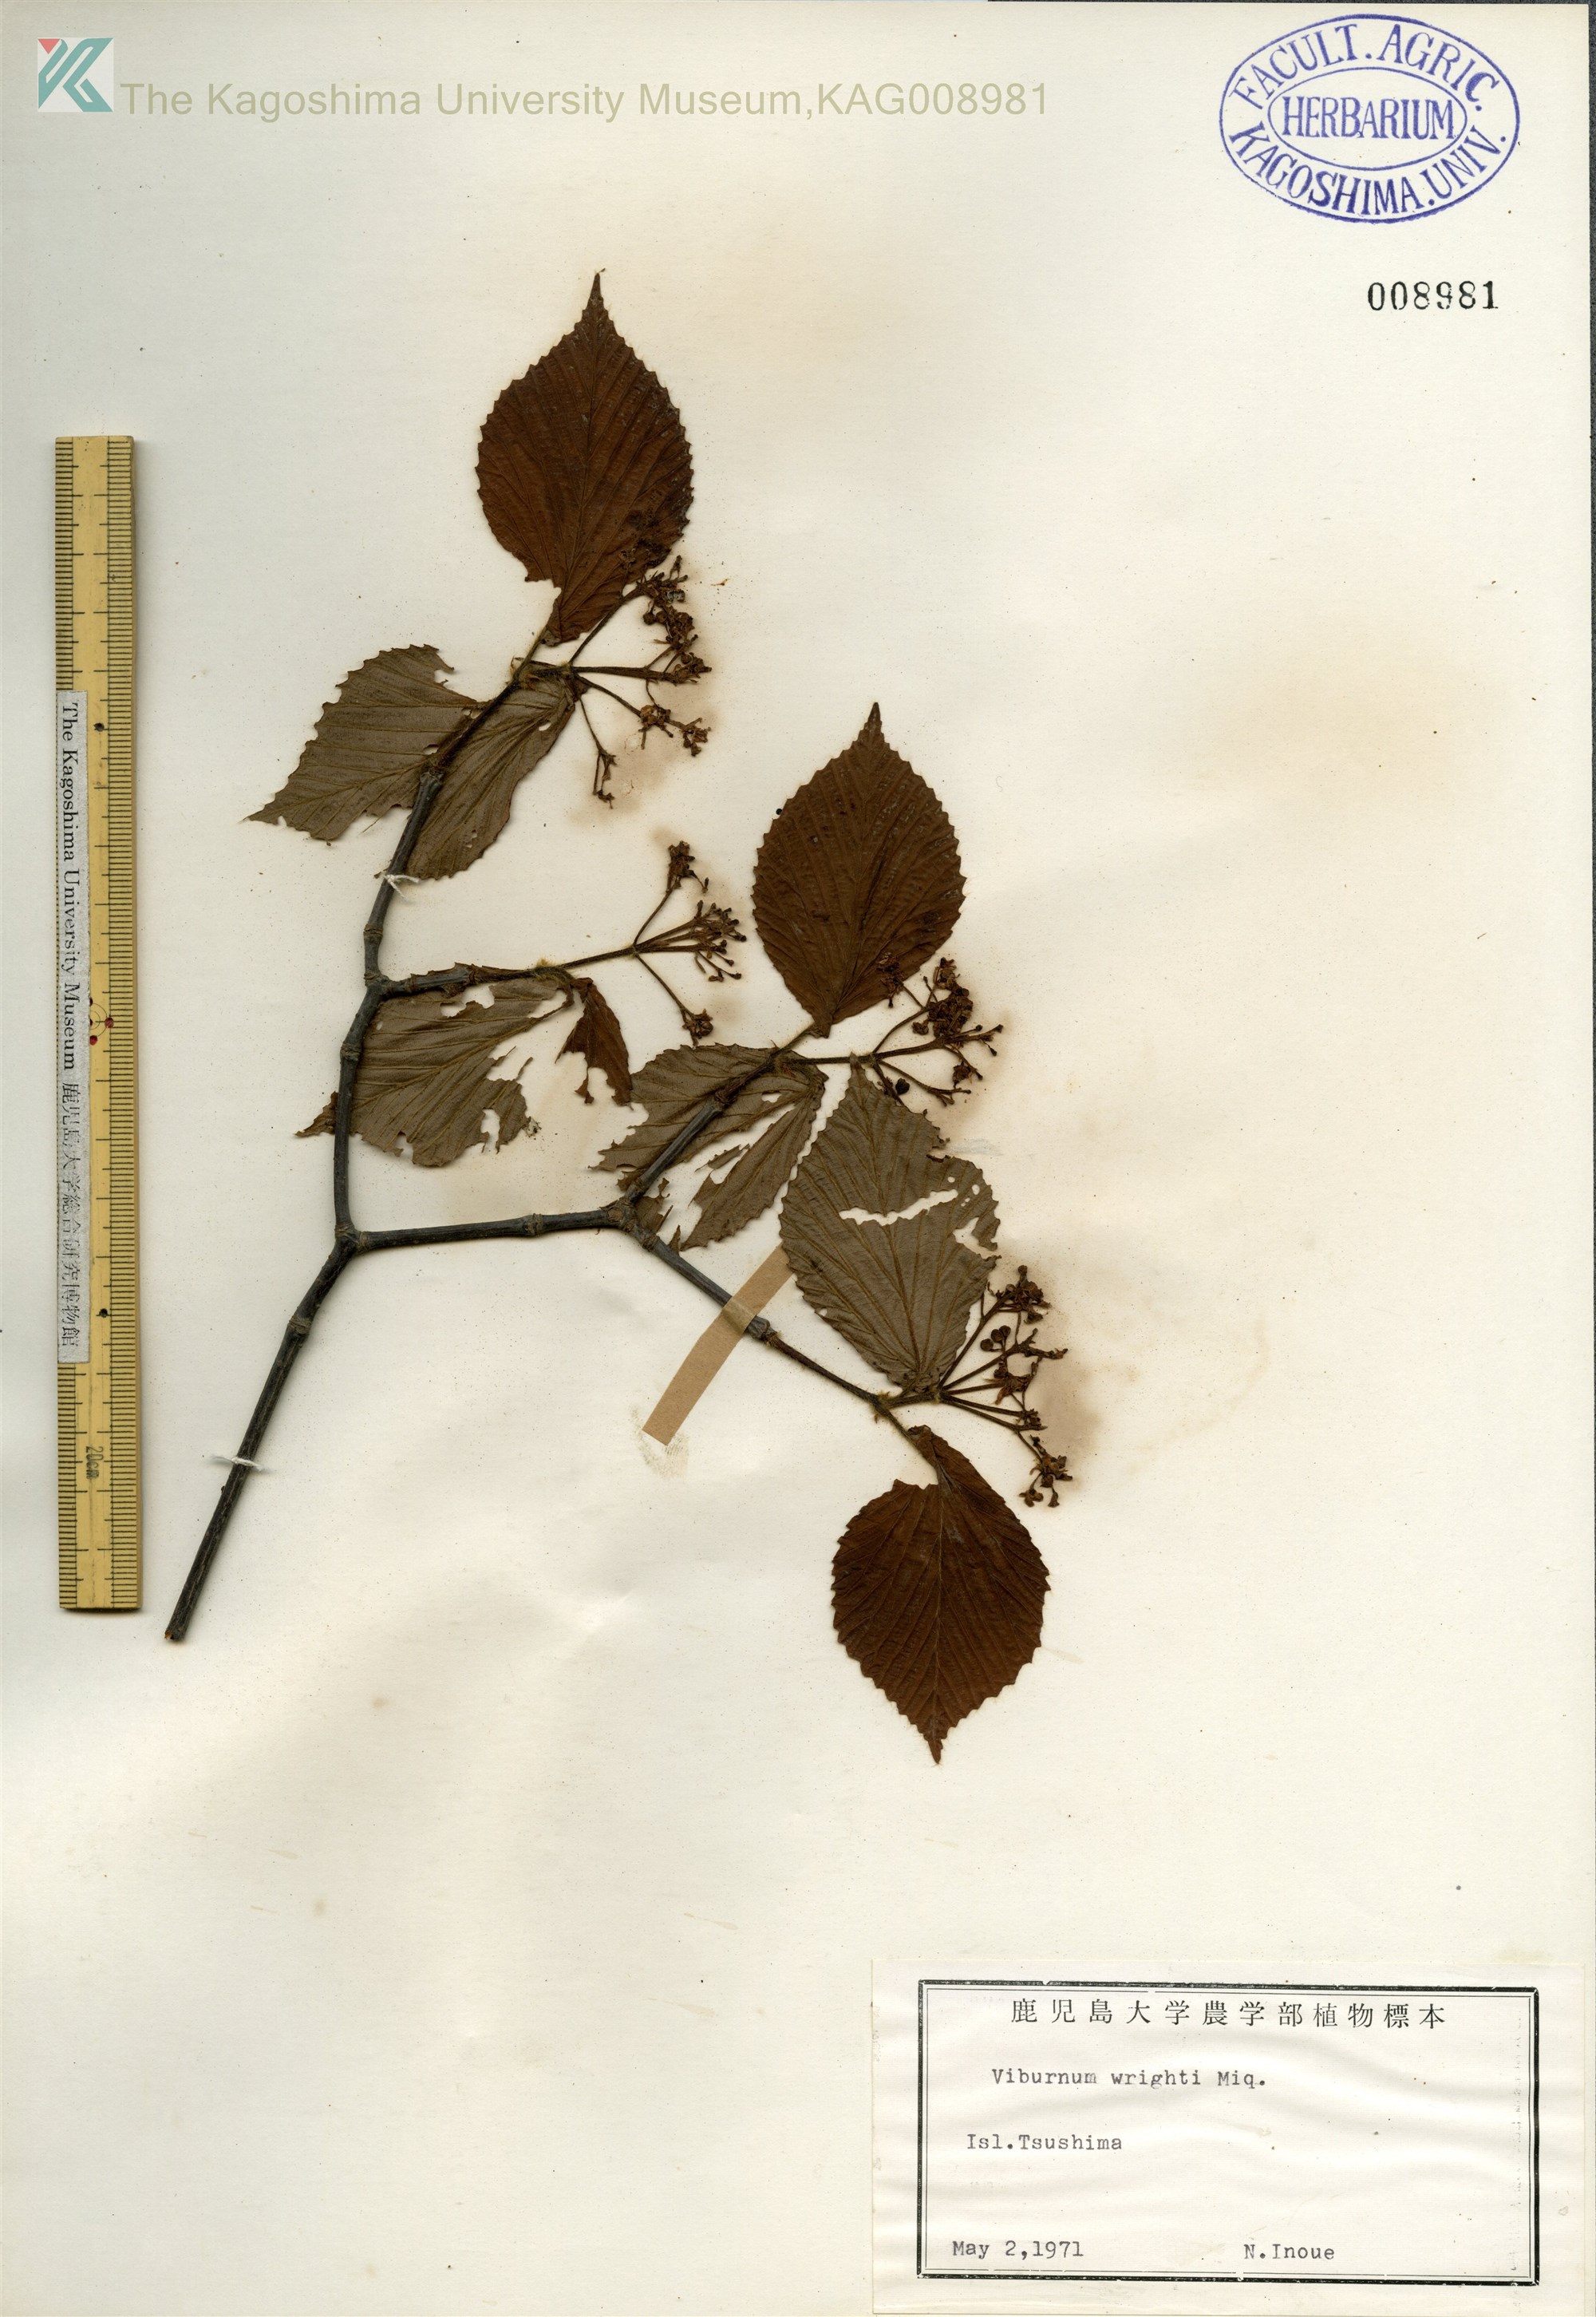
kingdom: Plantae
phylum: Tracheophyta
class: Magnoliopsida
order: Dipsacales
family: Viburnaceae
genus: Viburnum
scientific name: Viburnum wrightii
